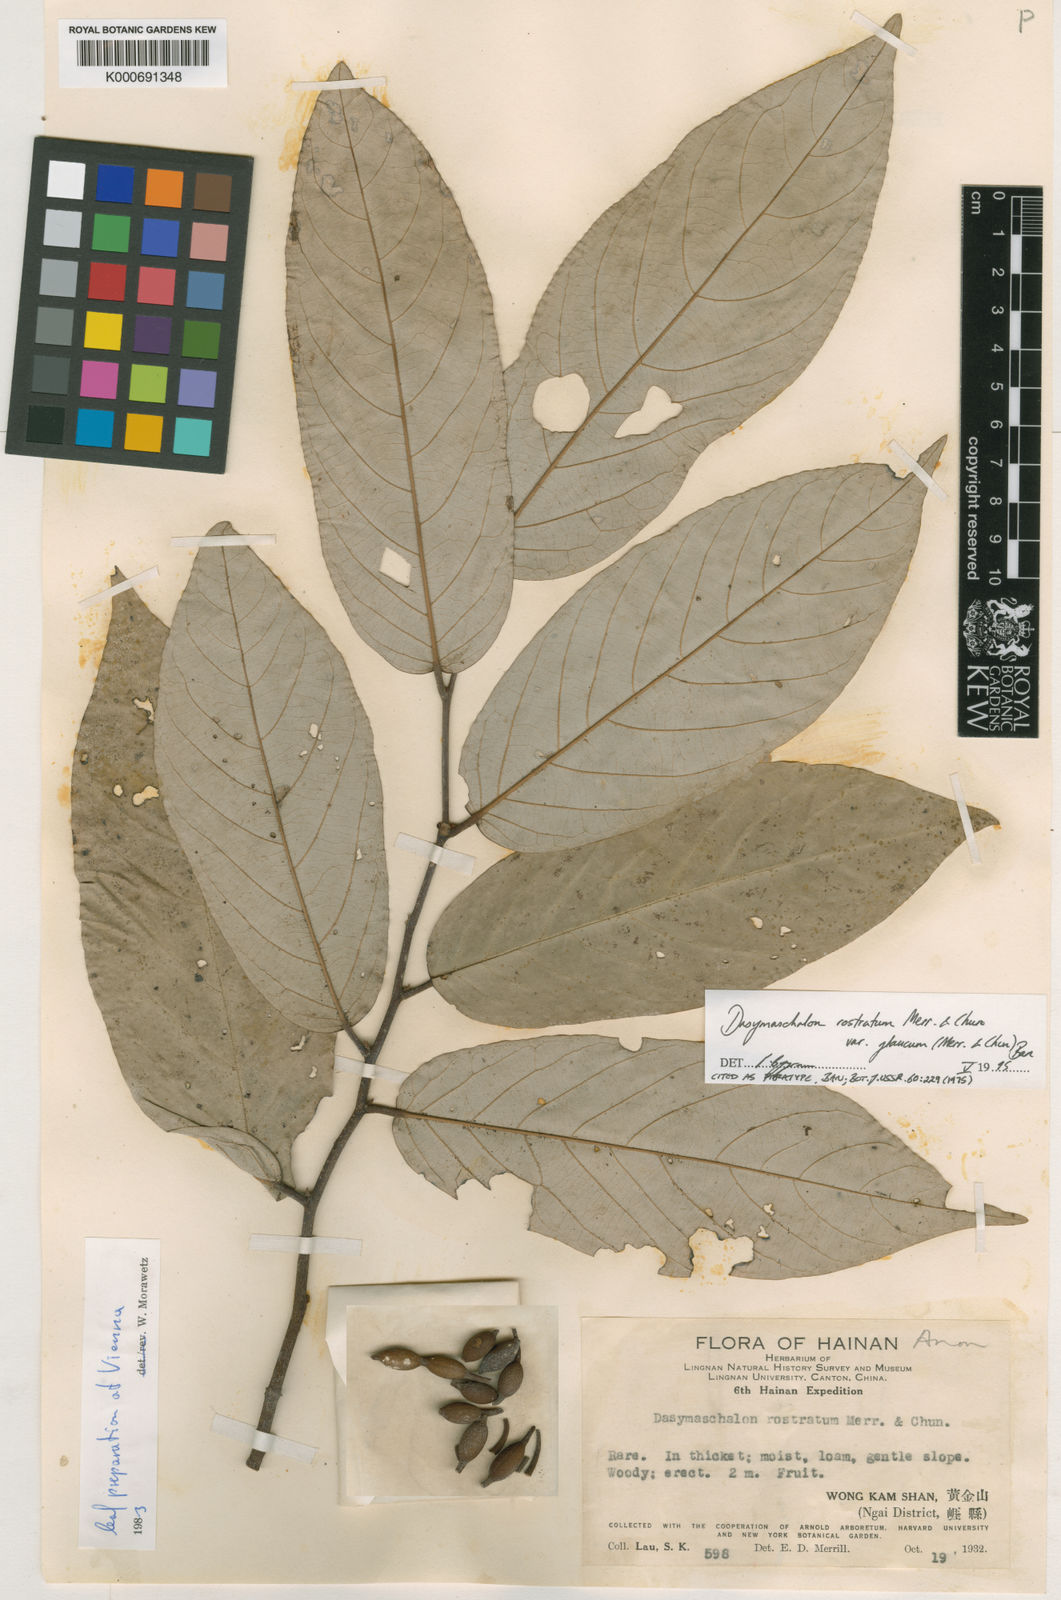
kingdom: Plantae
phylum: Tracheophyta
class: Magnoliopsida
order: Magnoliales
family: Annonaceae
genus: Dasymaschalon
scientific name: Dasymaschalon rostratum
